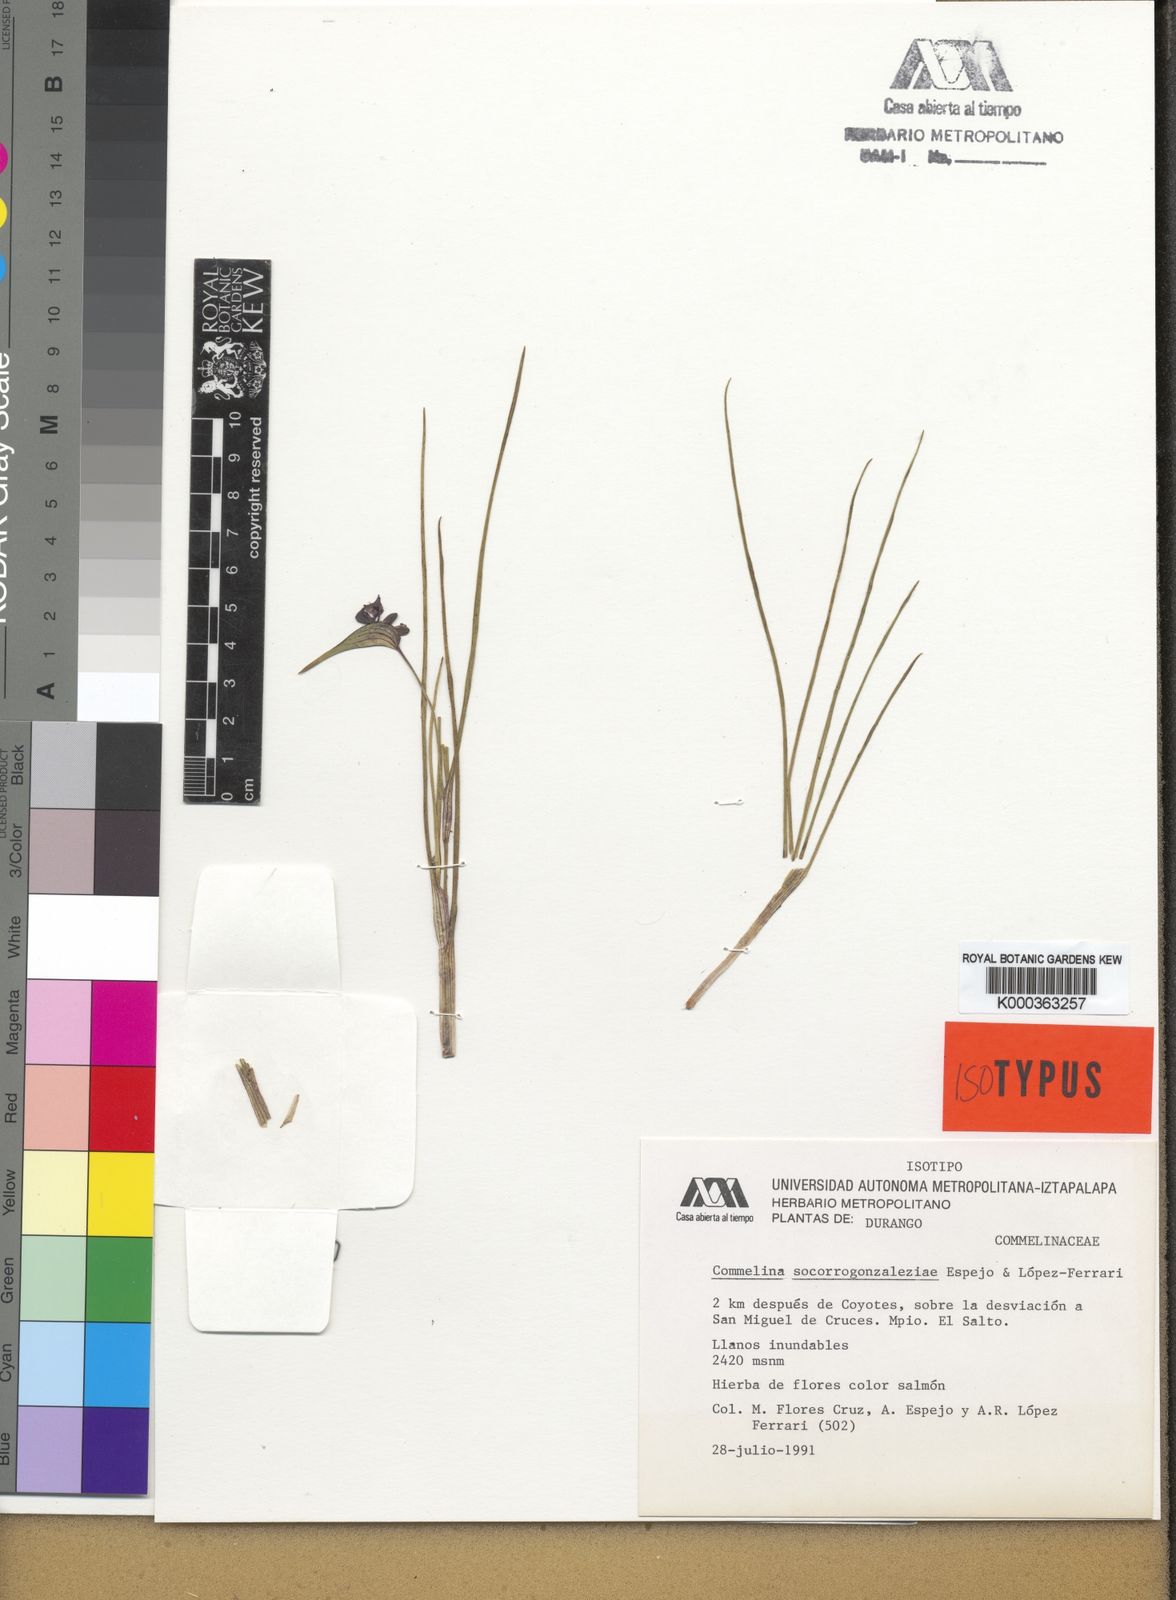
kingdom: Plantae
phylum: Tracheophyta
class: Liliopsida
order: Commelinales
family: Commelinaceae
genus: Commelina
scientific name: Commelina
